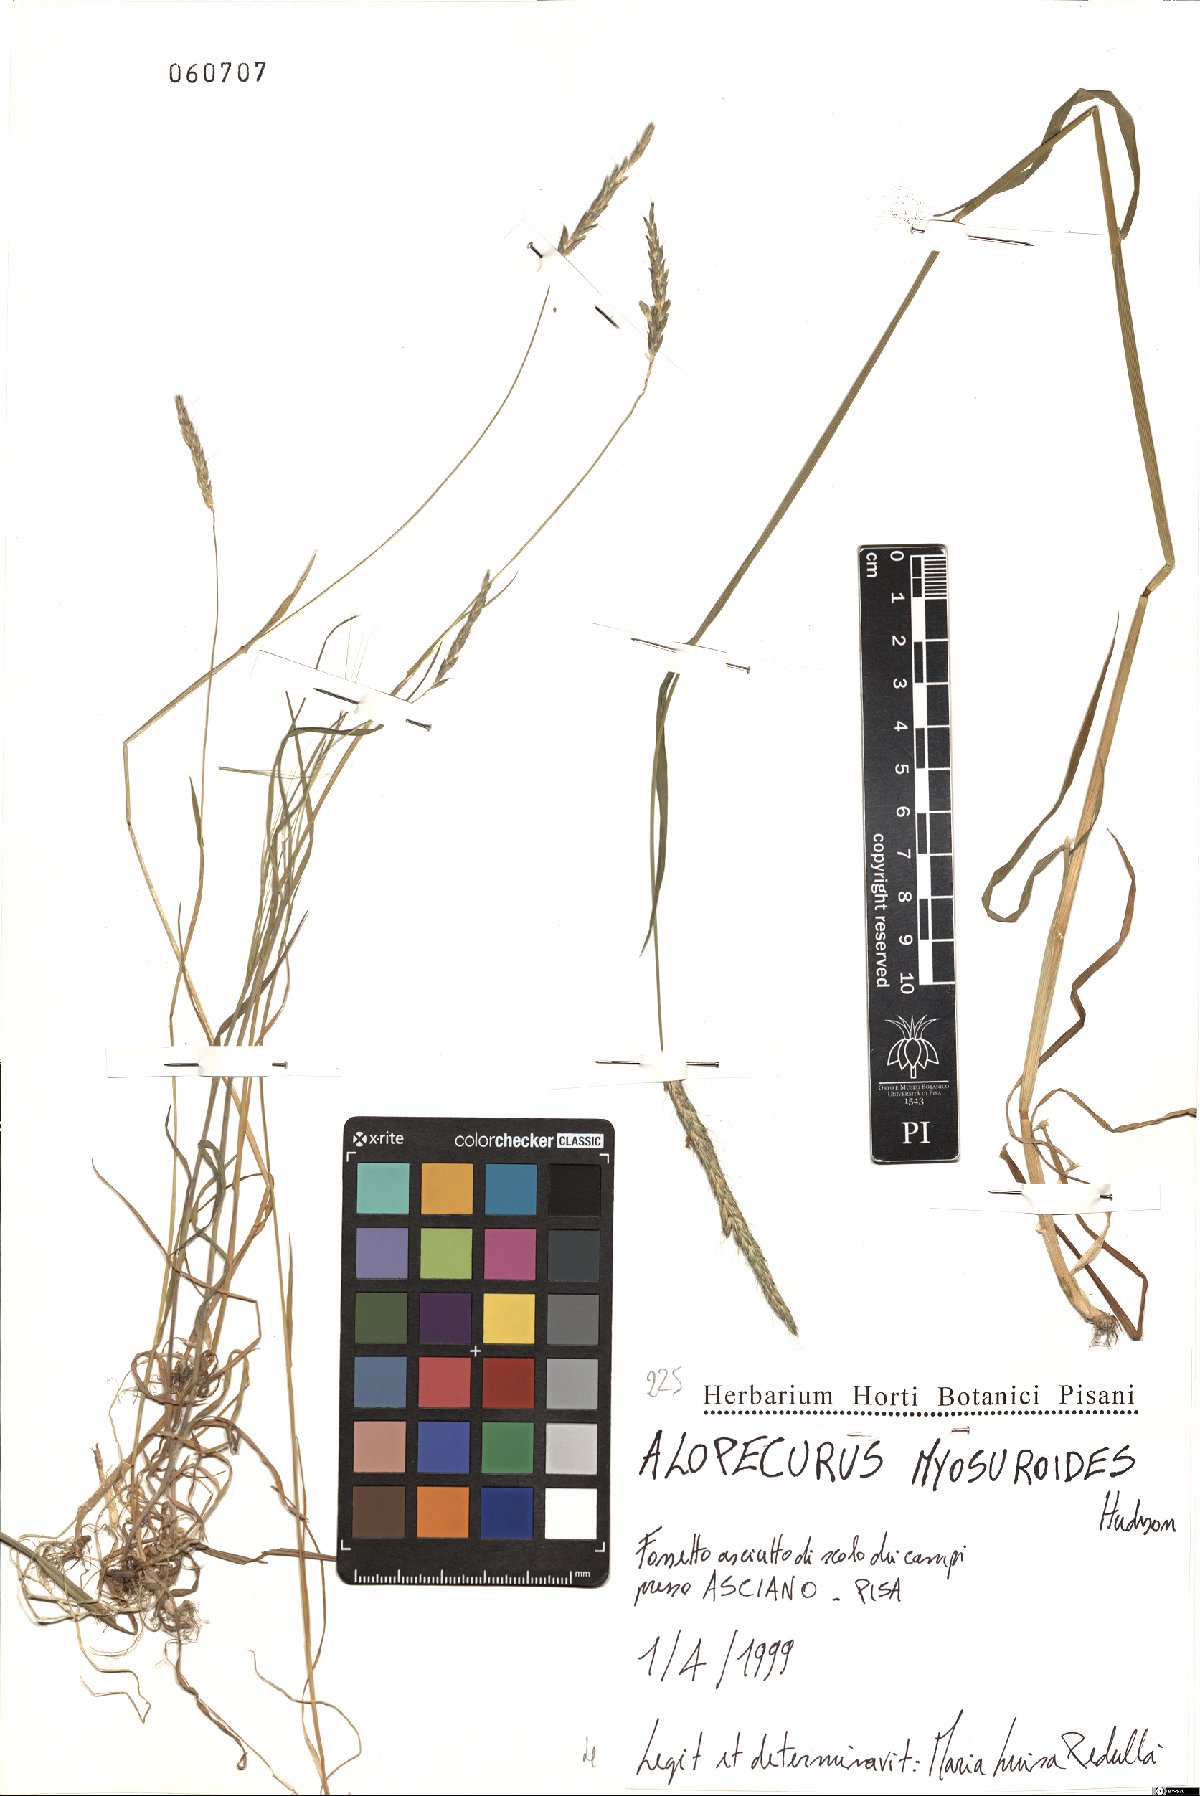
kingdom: Plantae
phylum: Tracheophyta
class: Liliopsida
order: Poales
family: Poaceae
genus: Alopecurus
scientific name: Alopecurus myosuroides
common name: Black-grass
